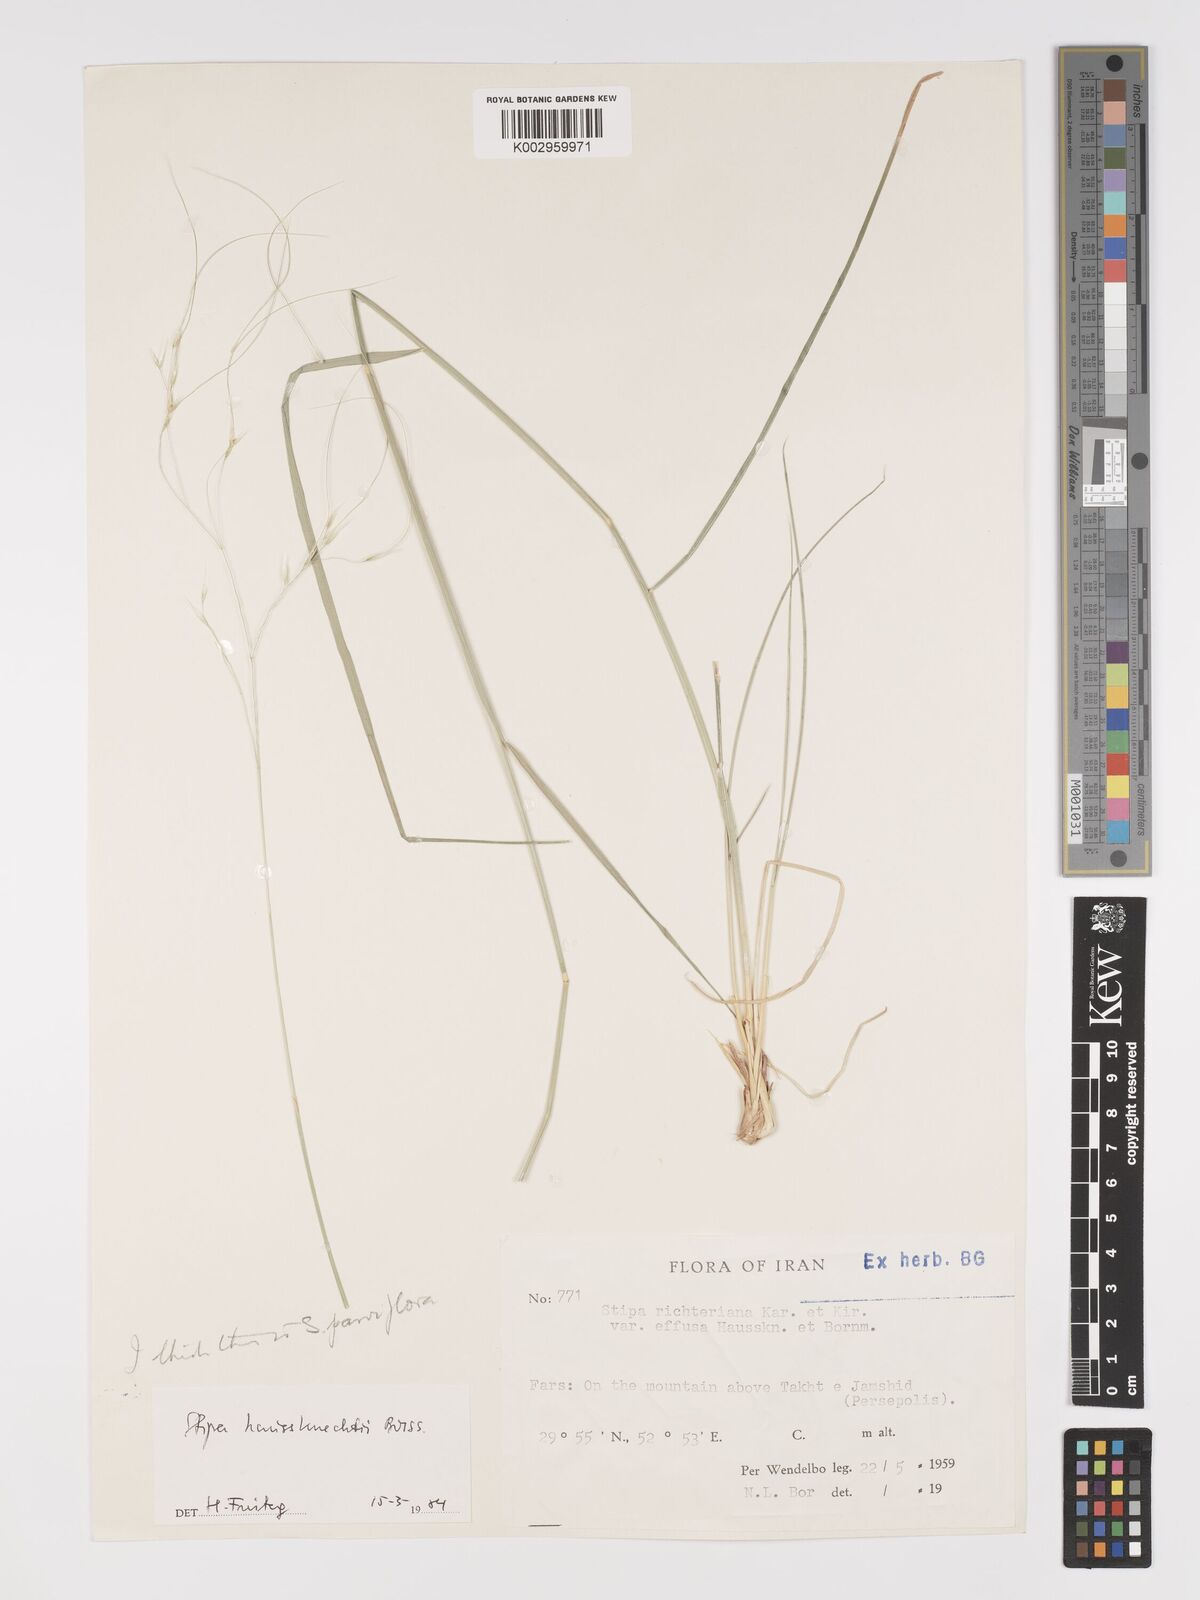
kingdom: Plantae
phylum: Tracheophyta
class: Liliopsida
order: Poales
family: Poaceae
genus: Achnatherum
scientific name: Achnatherum haussknechtii
